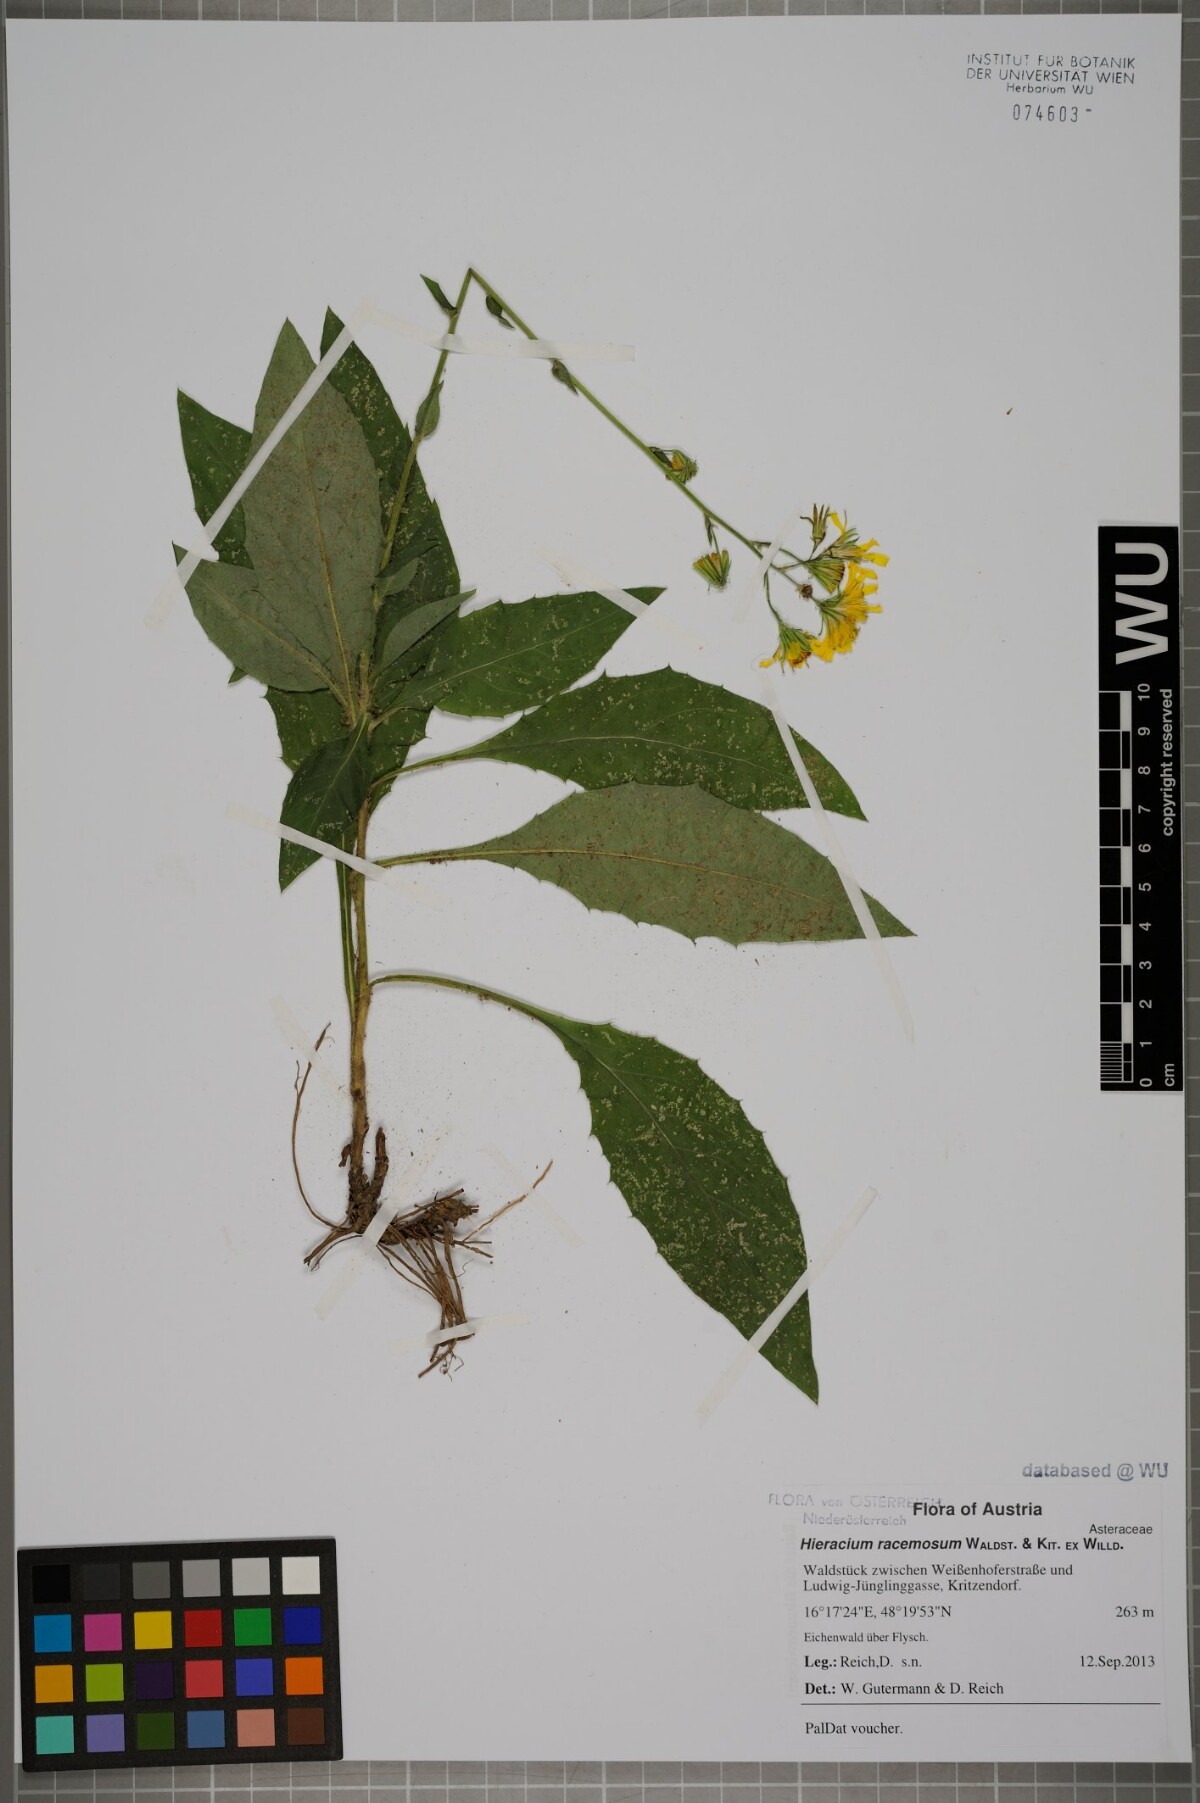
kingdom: Plantae
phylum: Tracheophyta
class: Magnoliopsida
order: Asterales
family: Asteraceae
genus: Hieracium
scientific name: Hieracium racemosum
